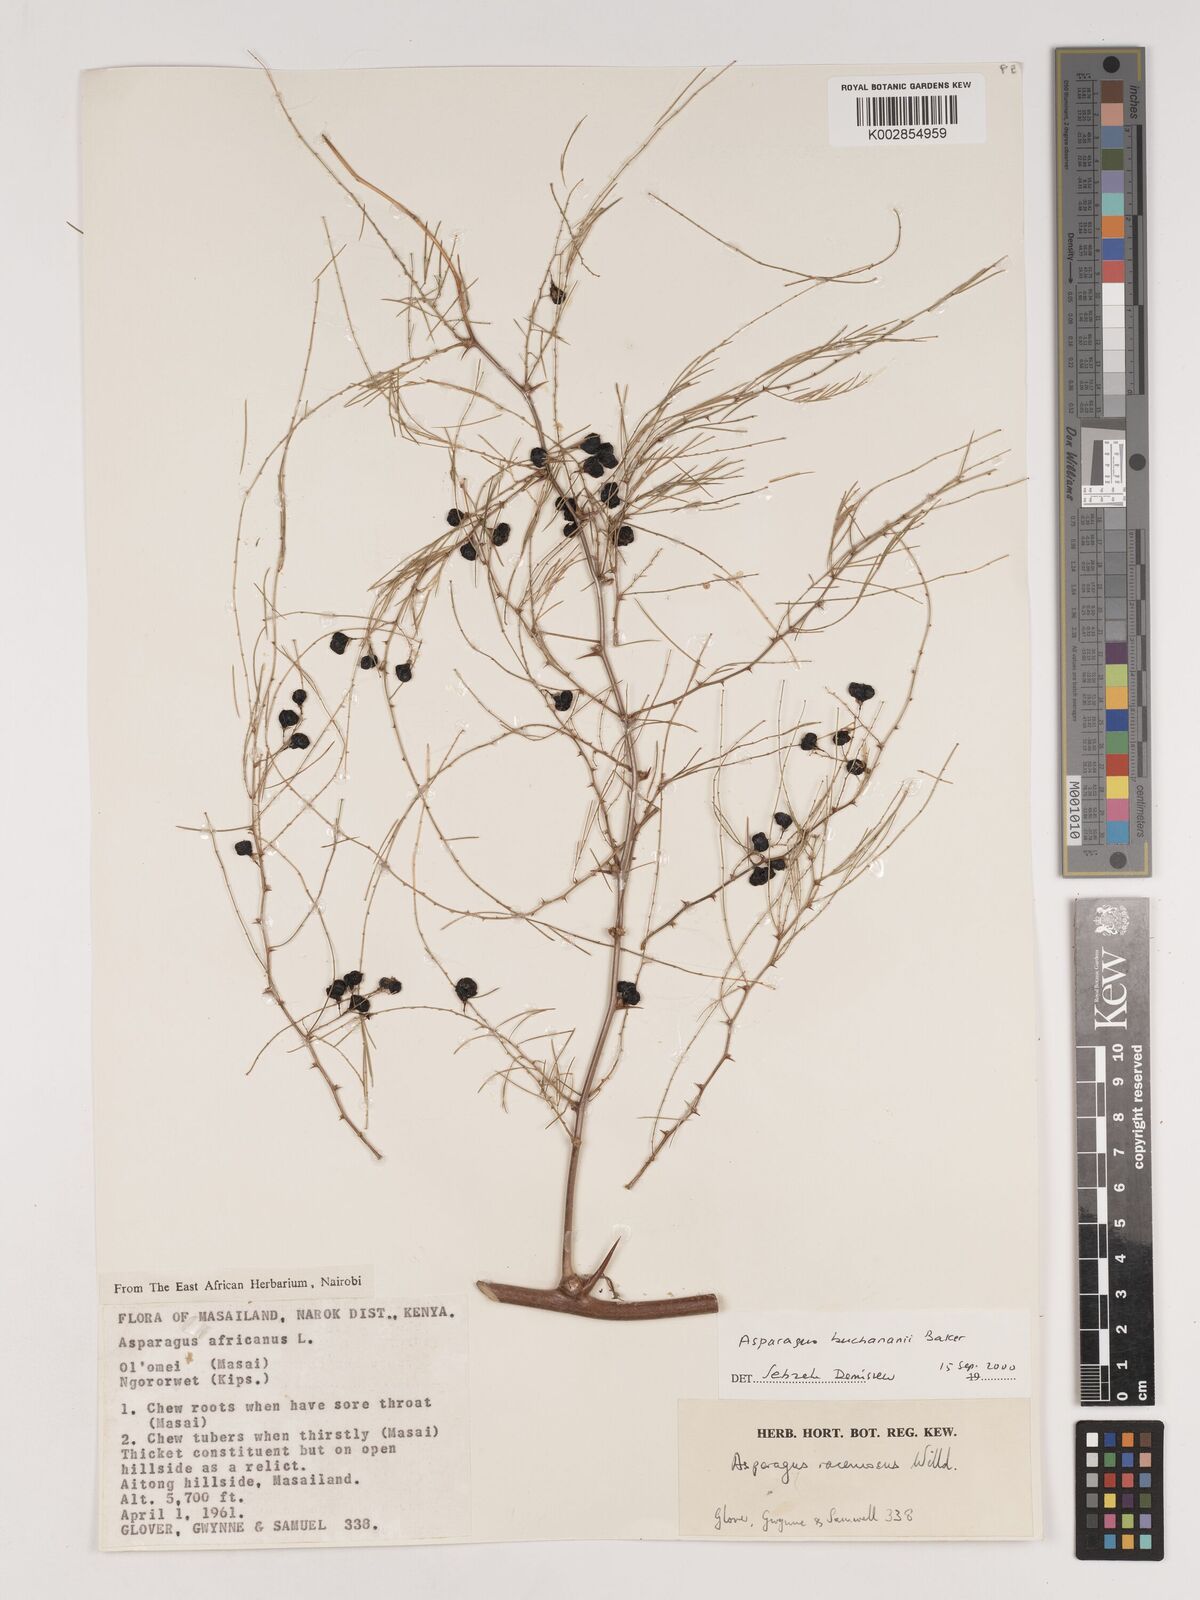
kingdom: Plantae
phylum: Tracheophyta
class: Liliopsida
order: Asparagales
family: Asparagaceae
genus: Asparagus
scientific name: Asparagus buchananii
